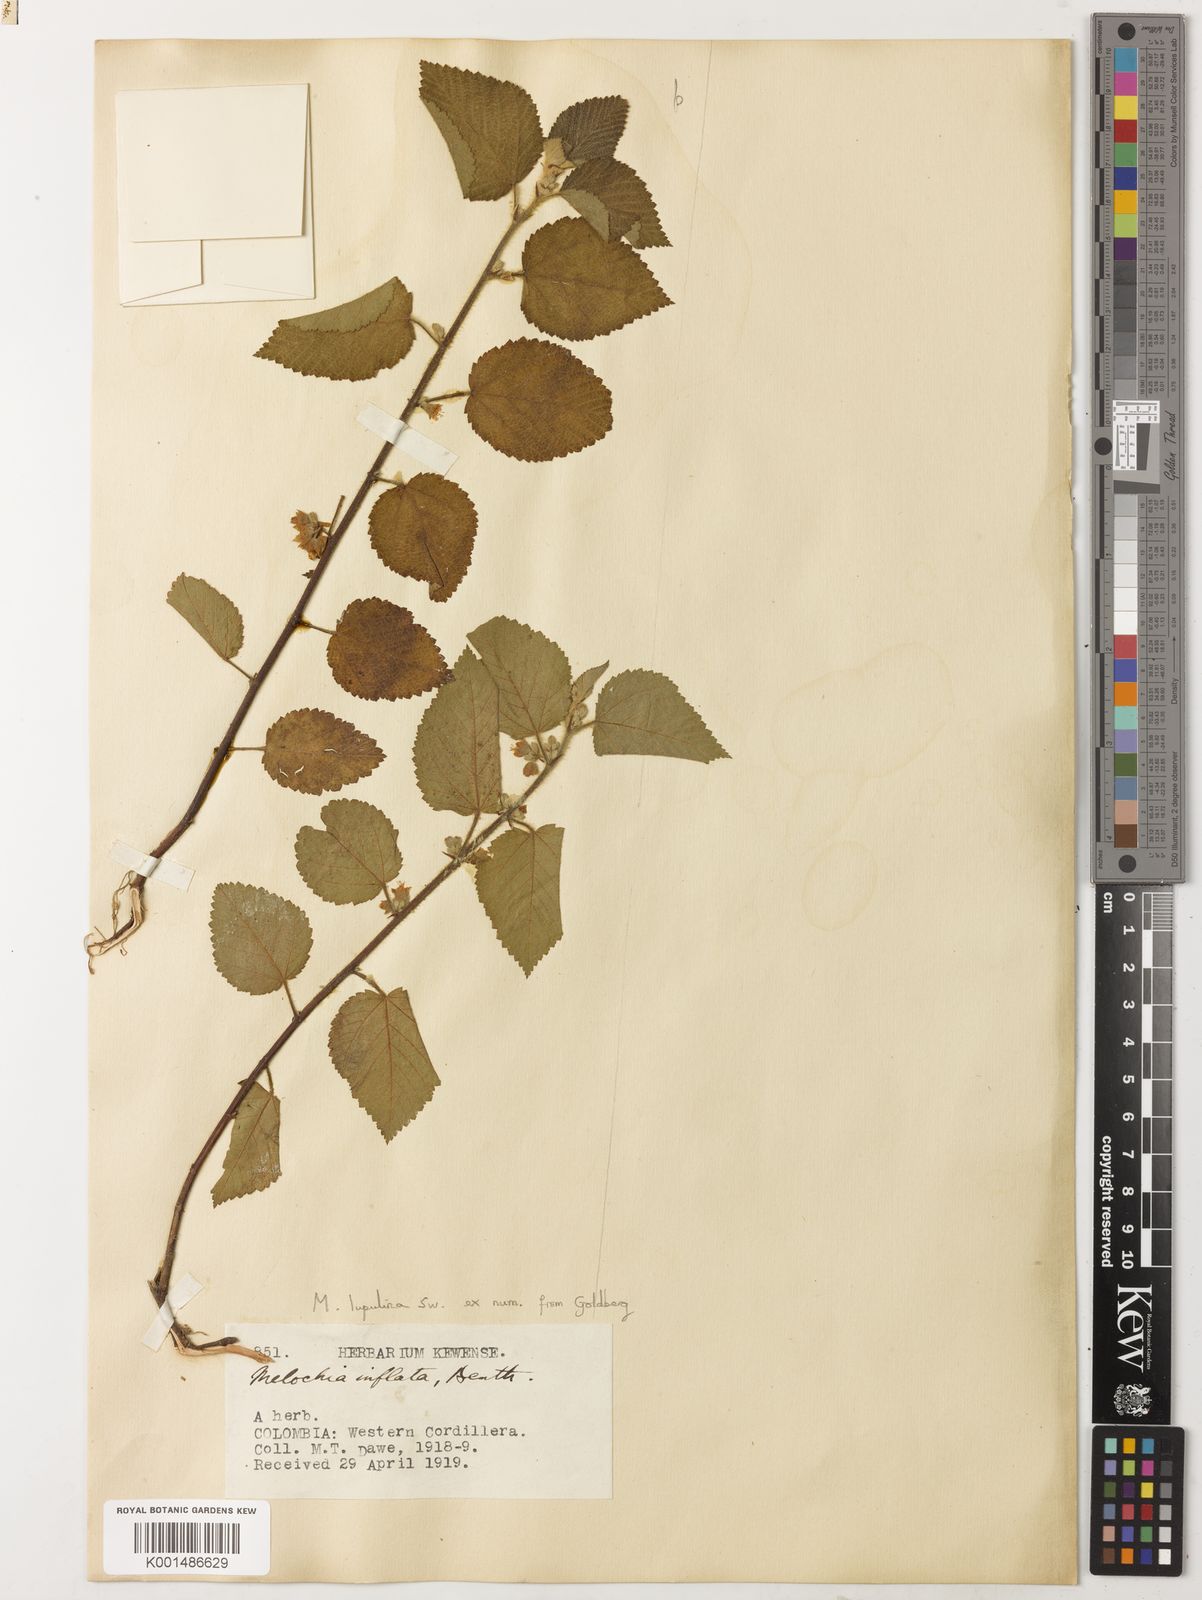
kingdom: Plantae
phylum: Tracheophyta
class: Magnoliopsida
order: Malvales
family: Malvaceae
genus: Melochia
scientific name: Melochia lupulina
